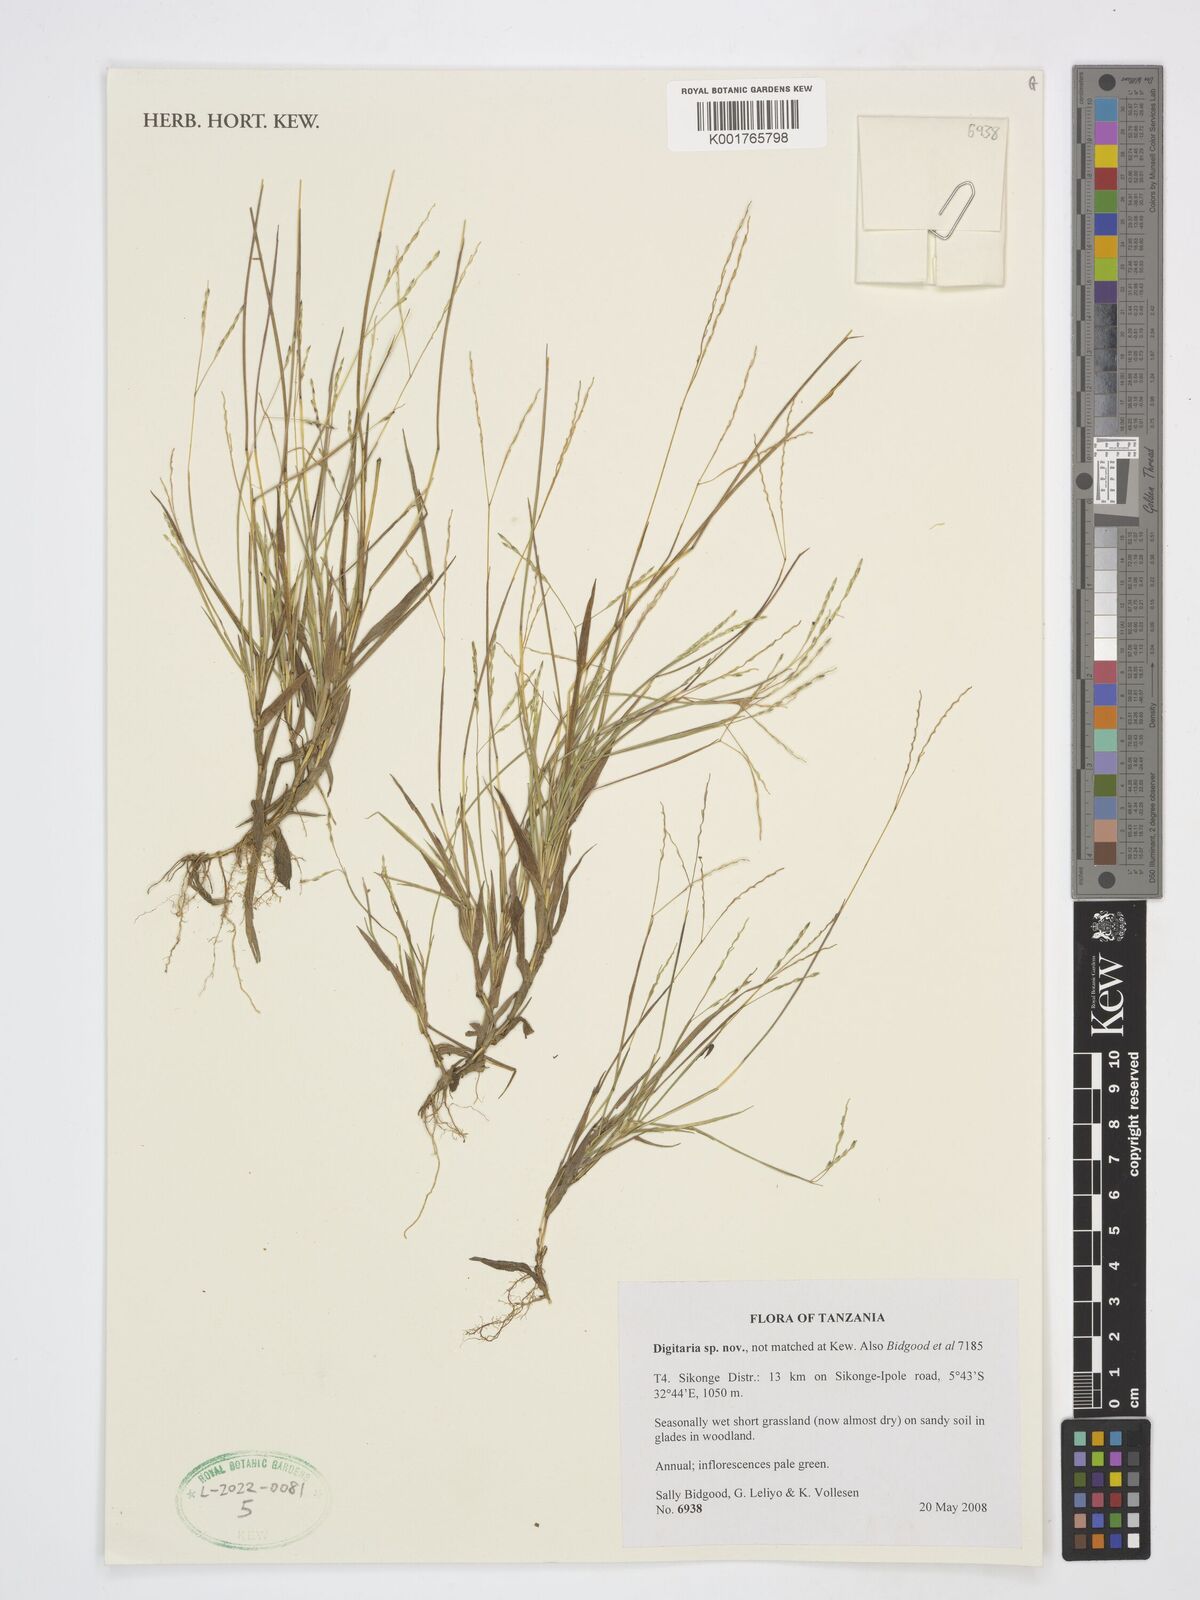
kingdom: Plantae
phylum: Tracheophyta
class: Liliopsida
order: Poales
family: Poaceae
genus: Digitaria
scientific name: Digitaria
